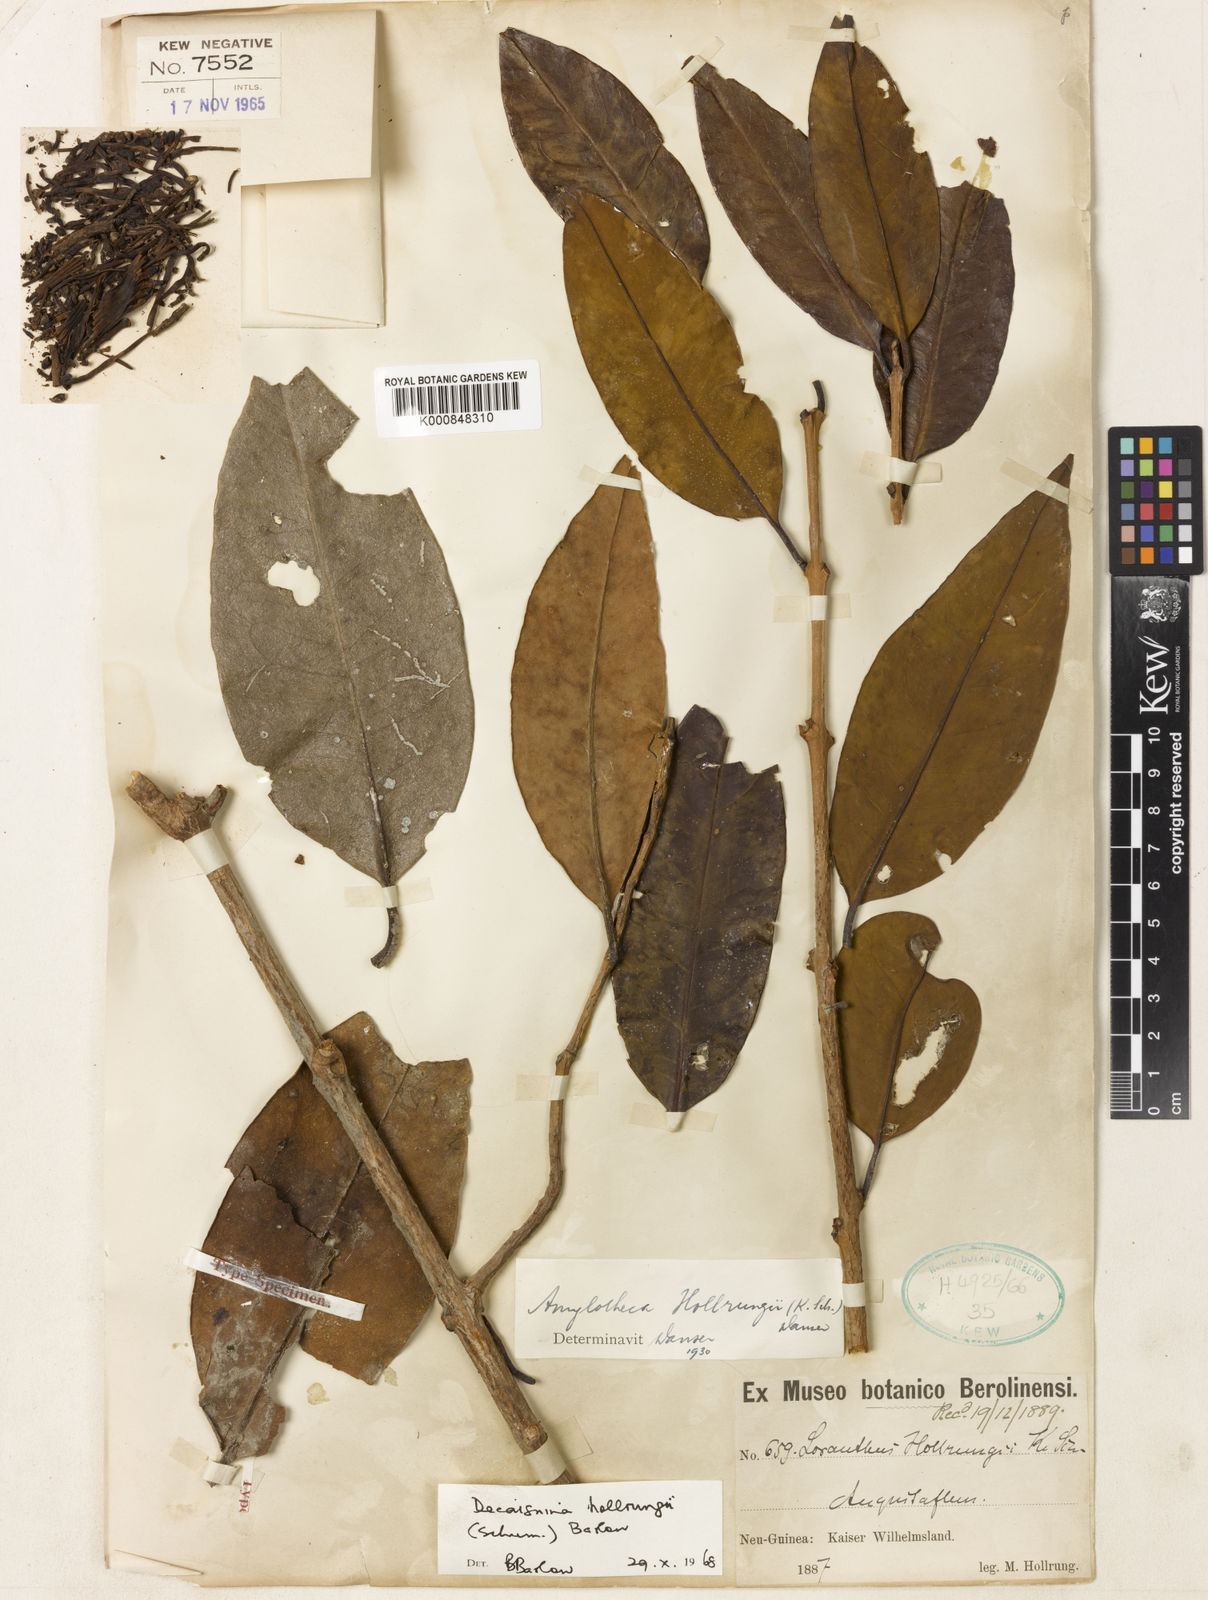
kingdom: Plantae
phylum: Tracheophyta
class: Magnoliopsida
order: Santalales
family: Loranthaceae
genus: Decaisnina
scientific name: Decaisnina hollrungii
